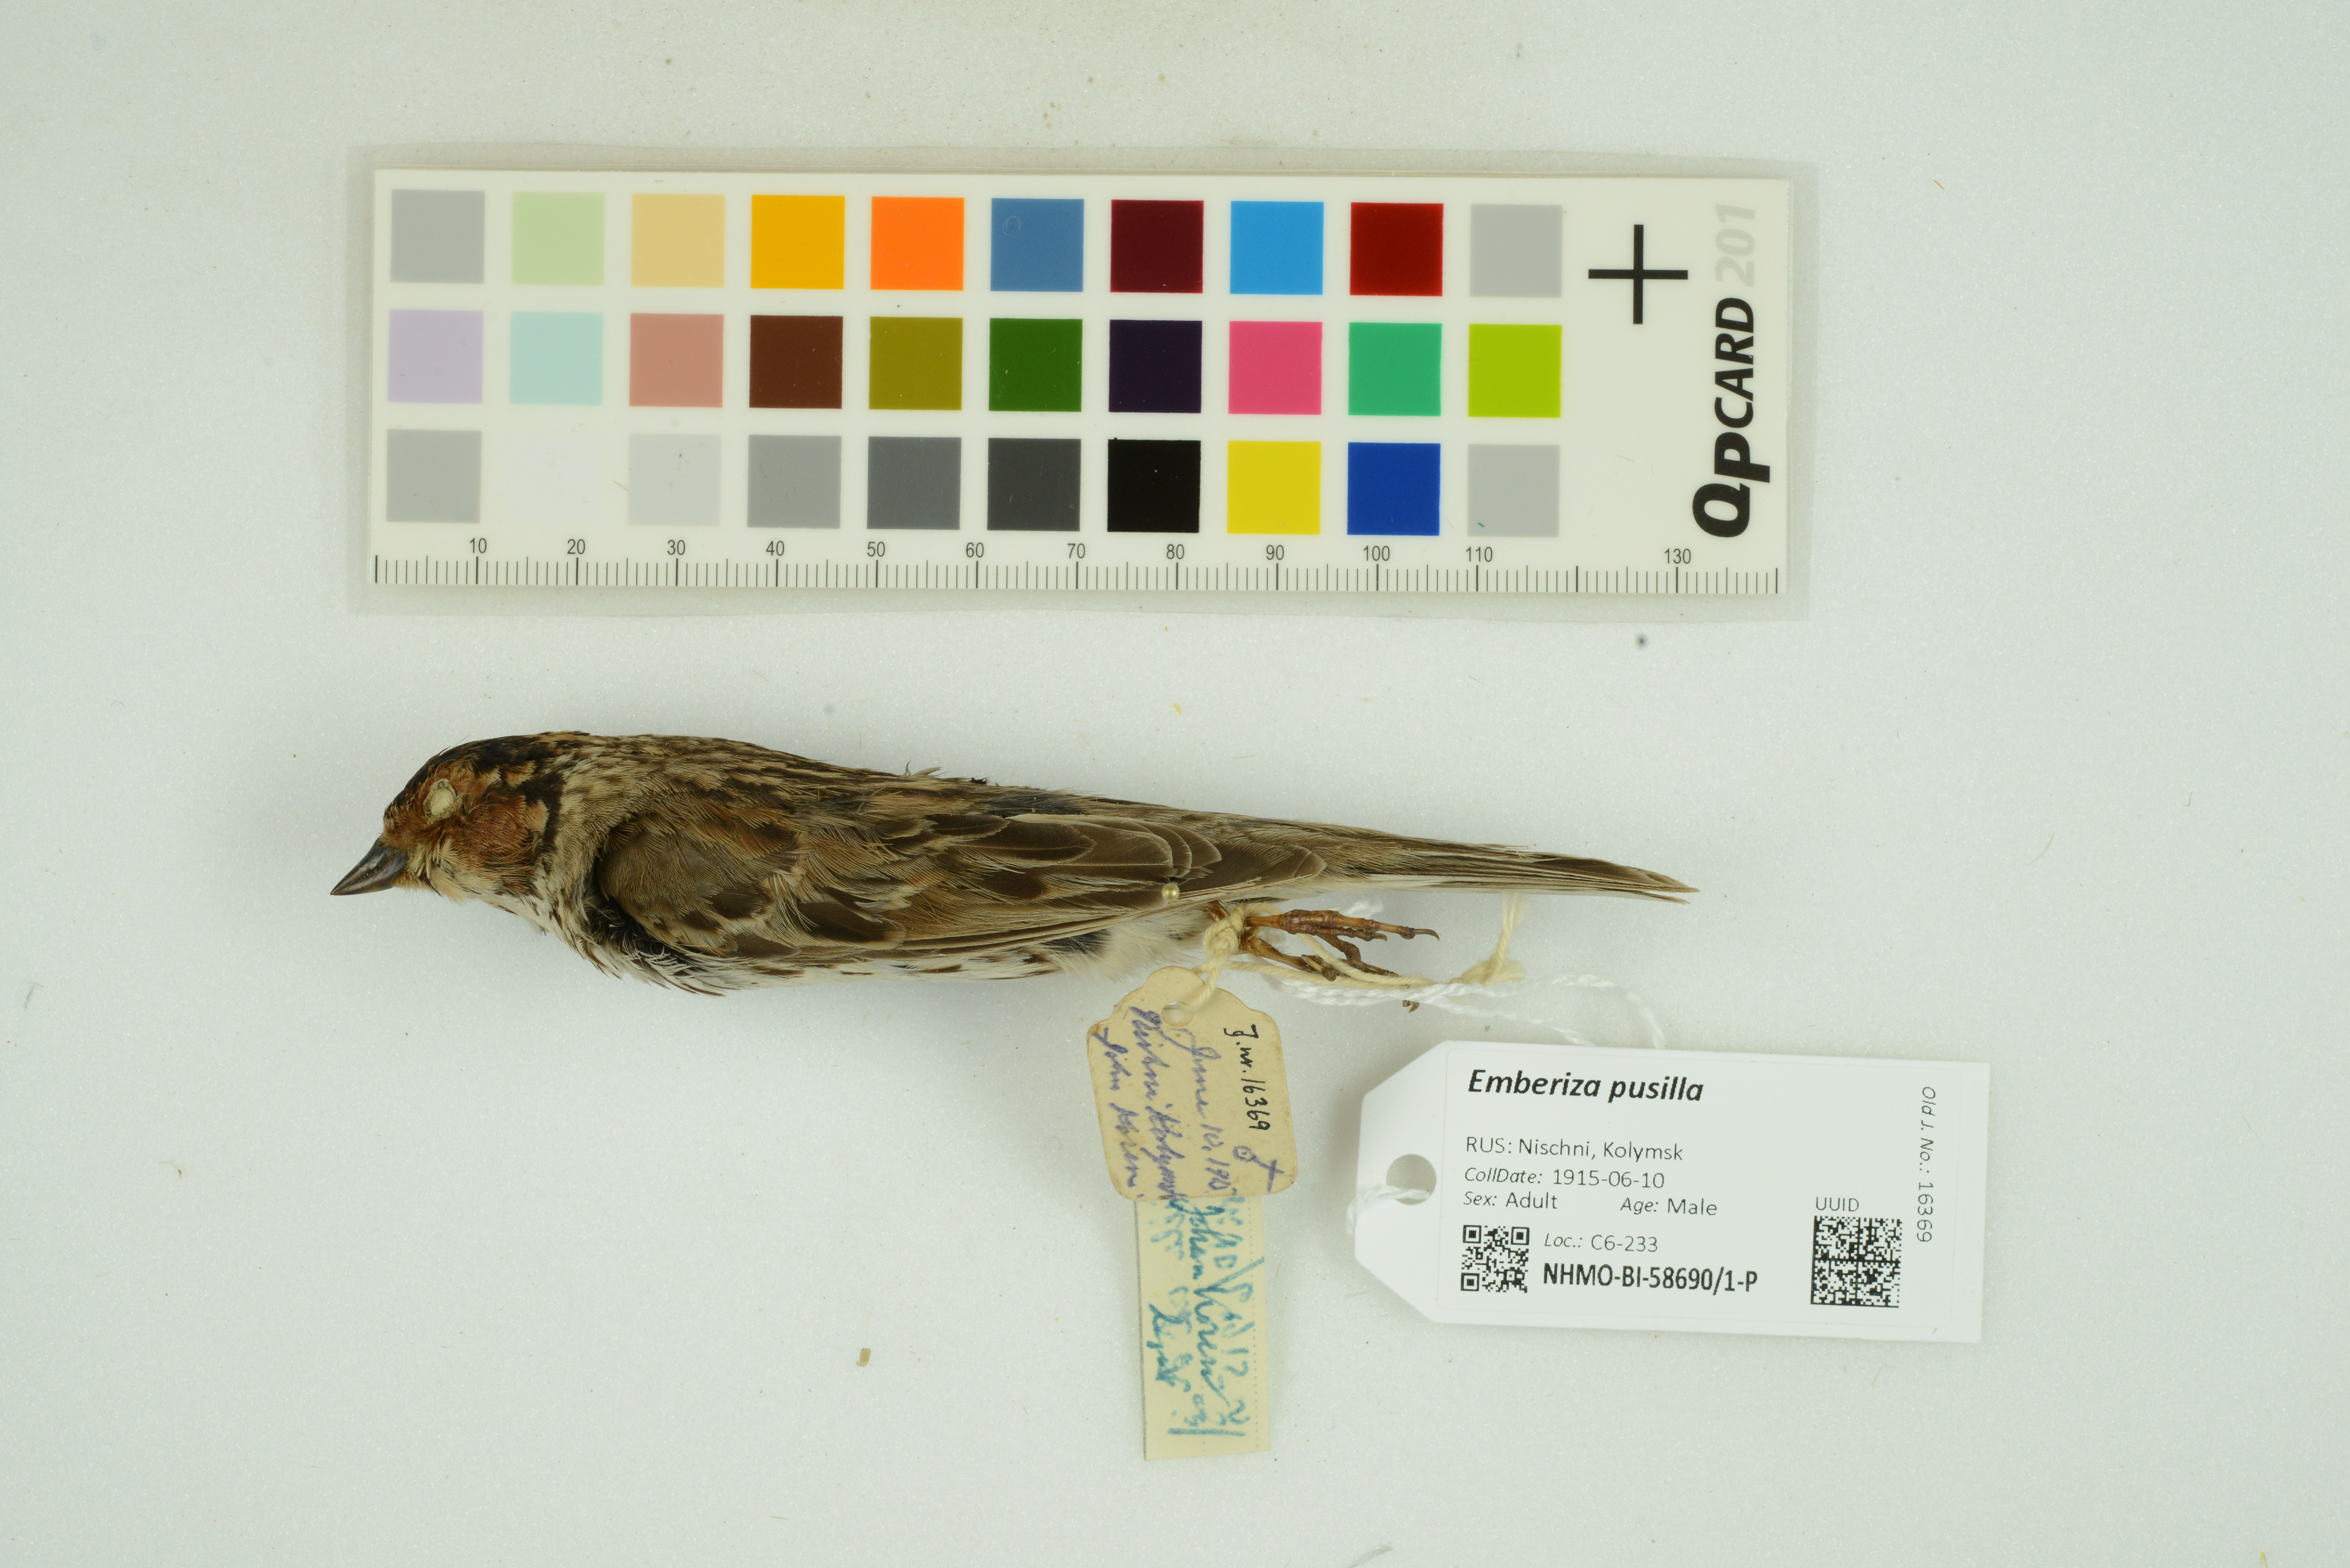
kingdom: Animalia
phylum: Chordata
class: Aves
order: Passeriformes
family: Emberizidae
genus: Emberiza
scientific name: Emberiza pusilla
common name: Little bunting
